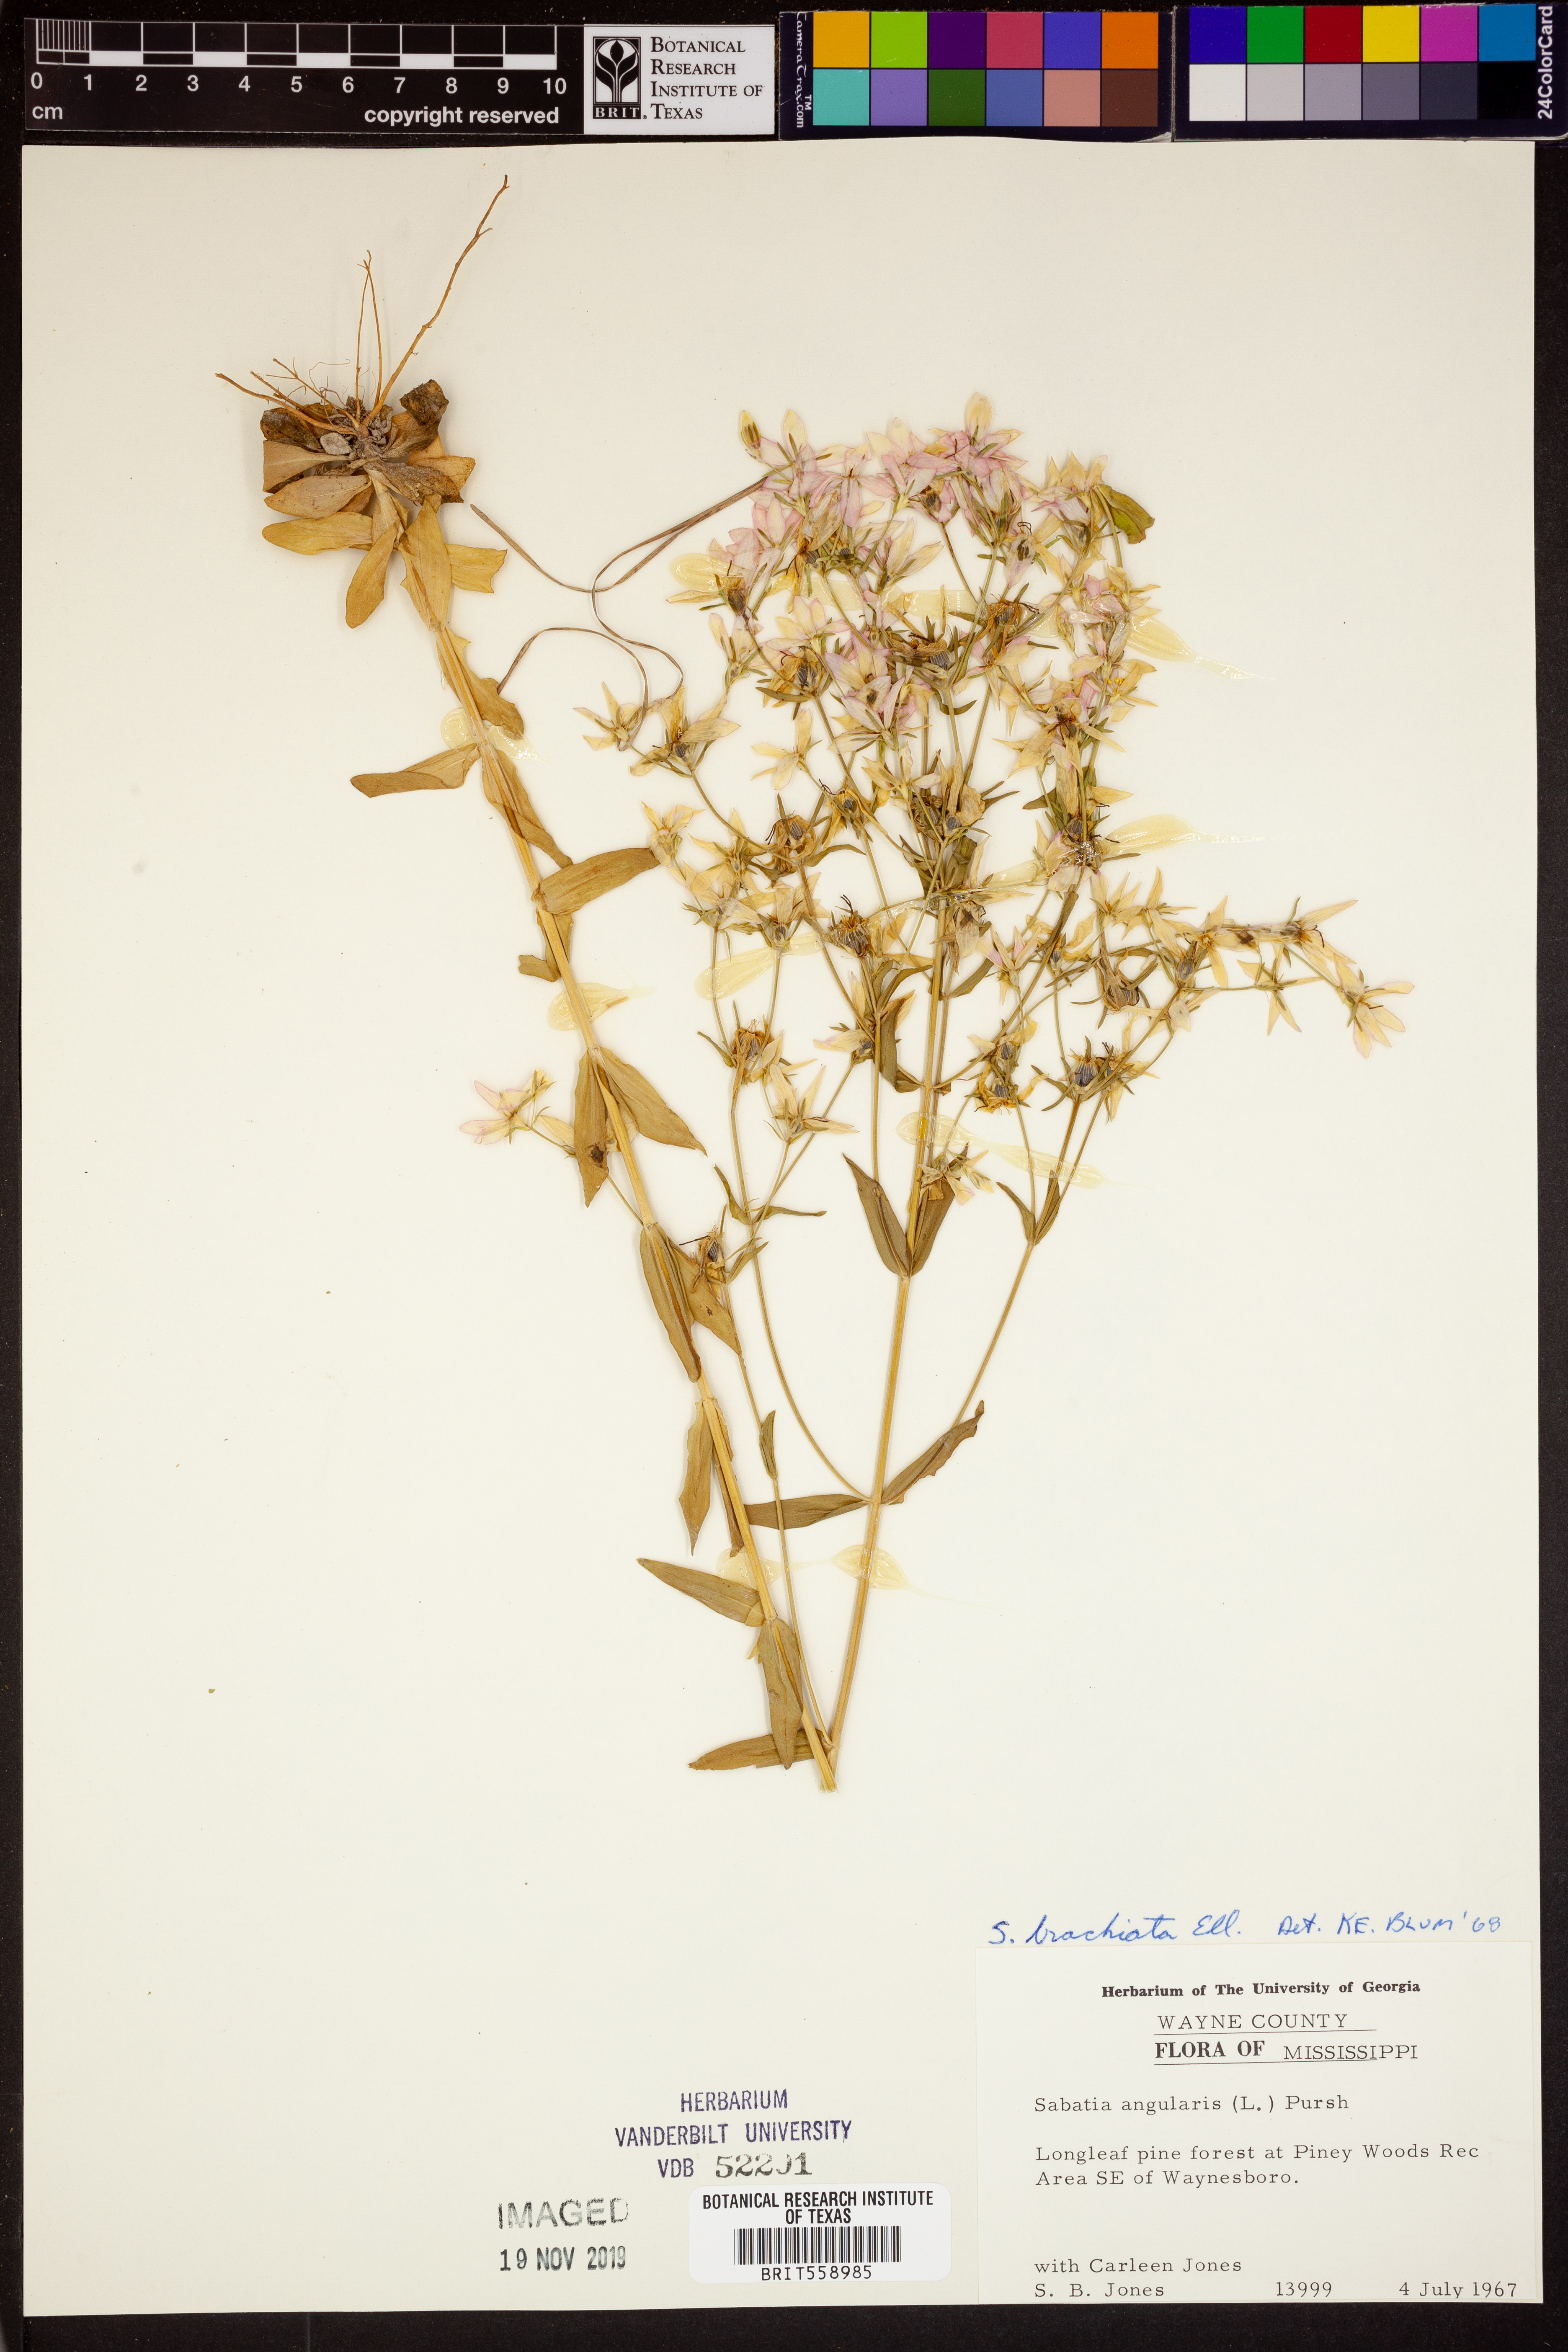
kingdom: Plantae
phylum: Tracheophyta
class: Magnoliopsida
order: Gentianales
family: Gentianaceae
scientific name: Gentianaceae
